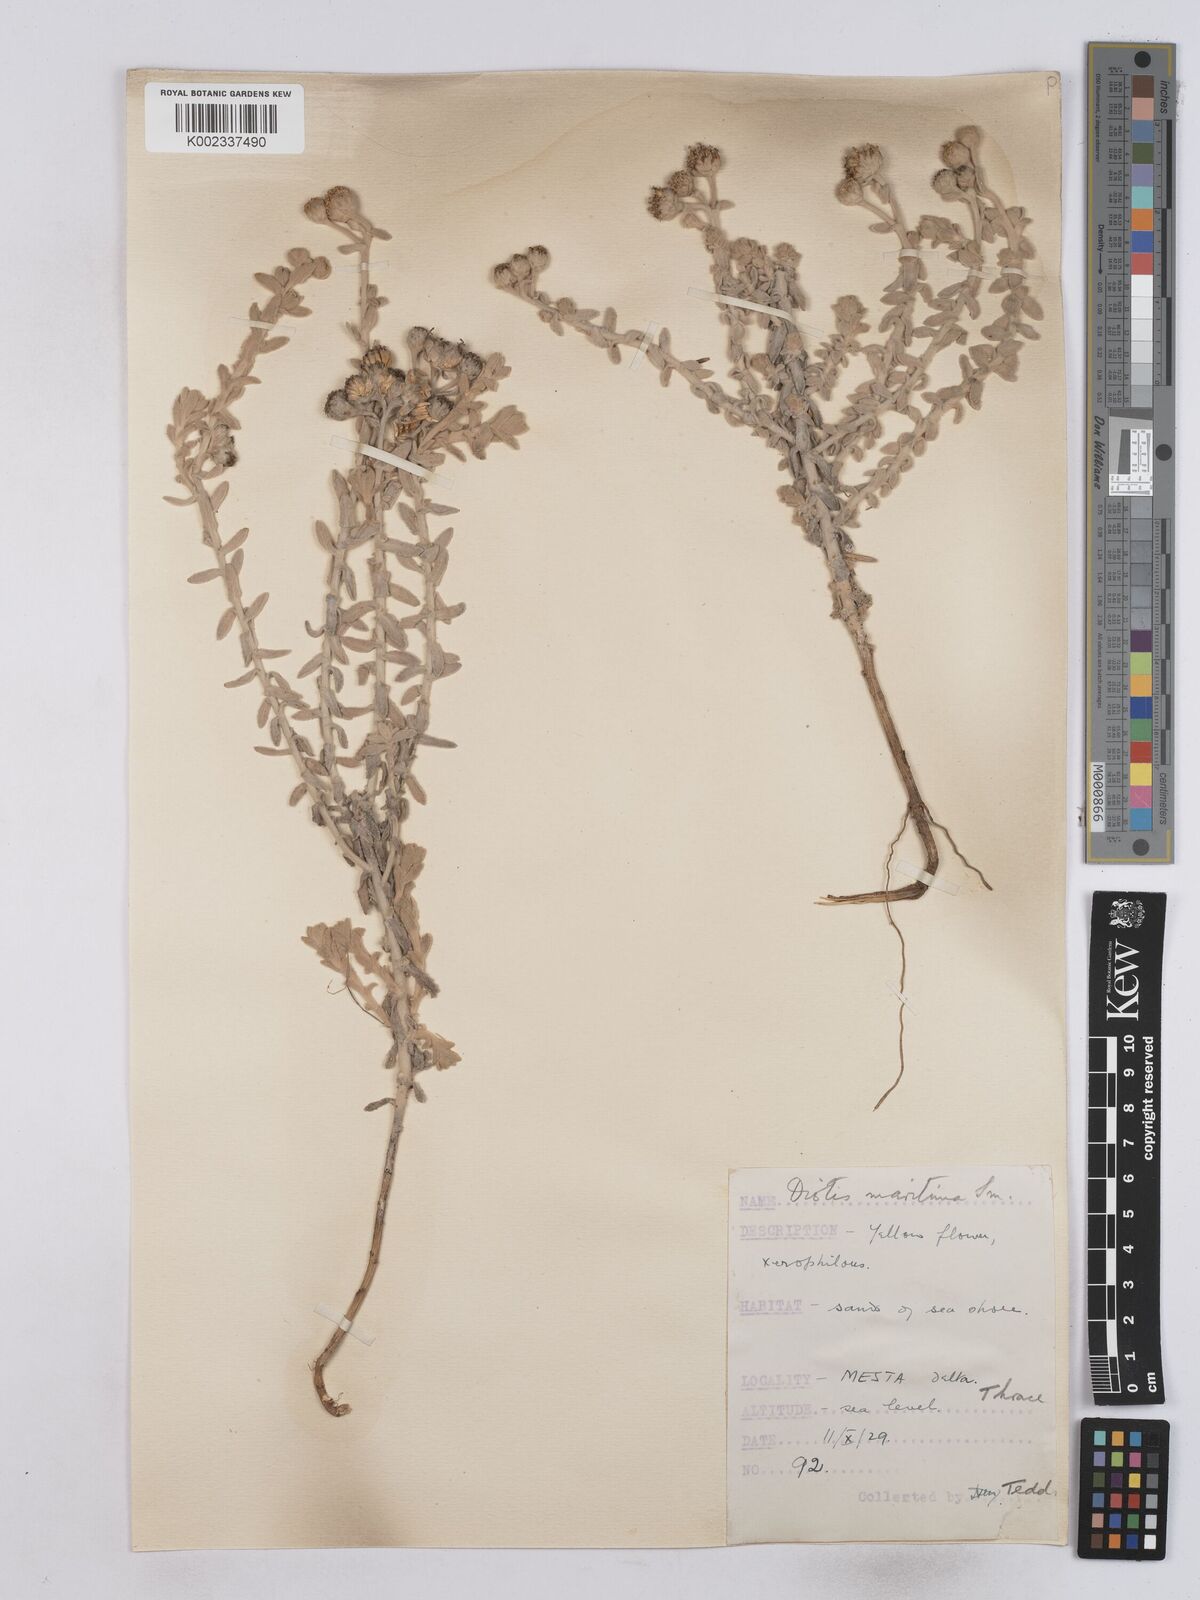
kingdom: Plantae
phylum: Tracheophyta
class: Magnoliopsida
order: Asterales
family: Asteraceae
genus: Achillea
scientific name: Achillea maritima
